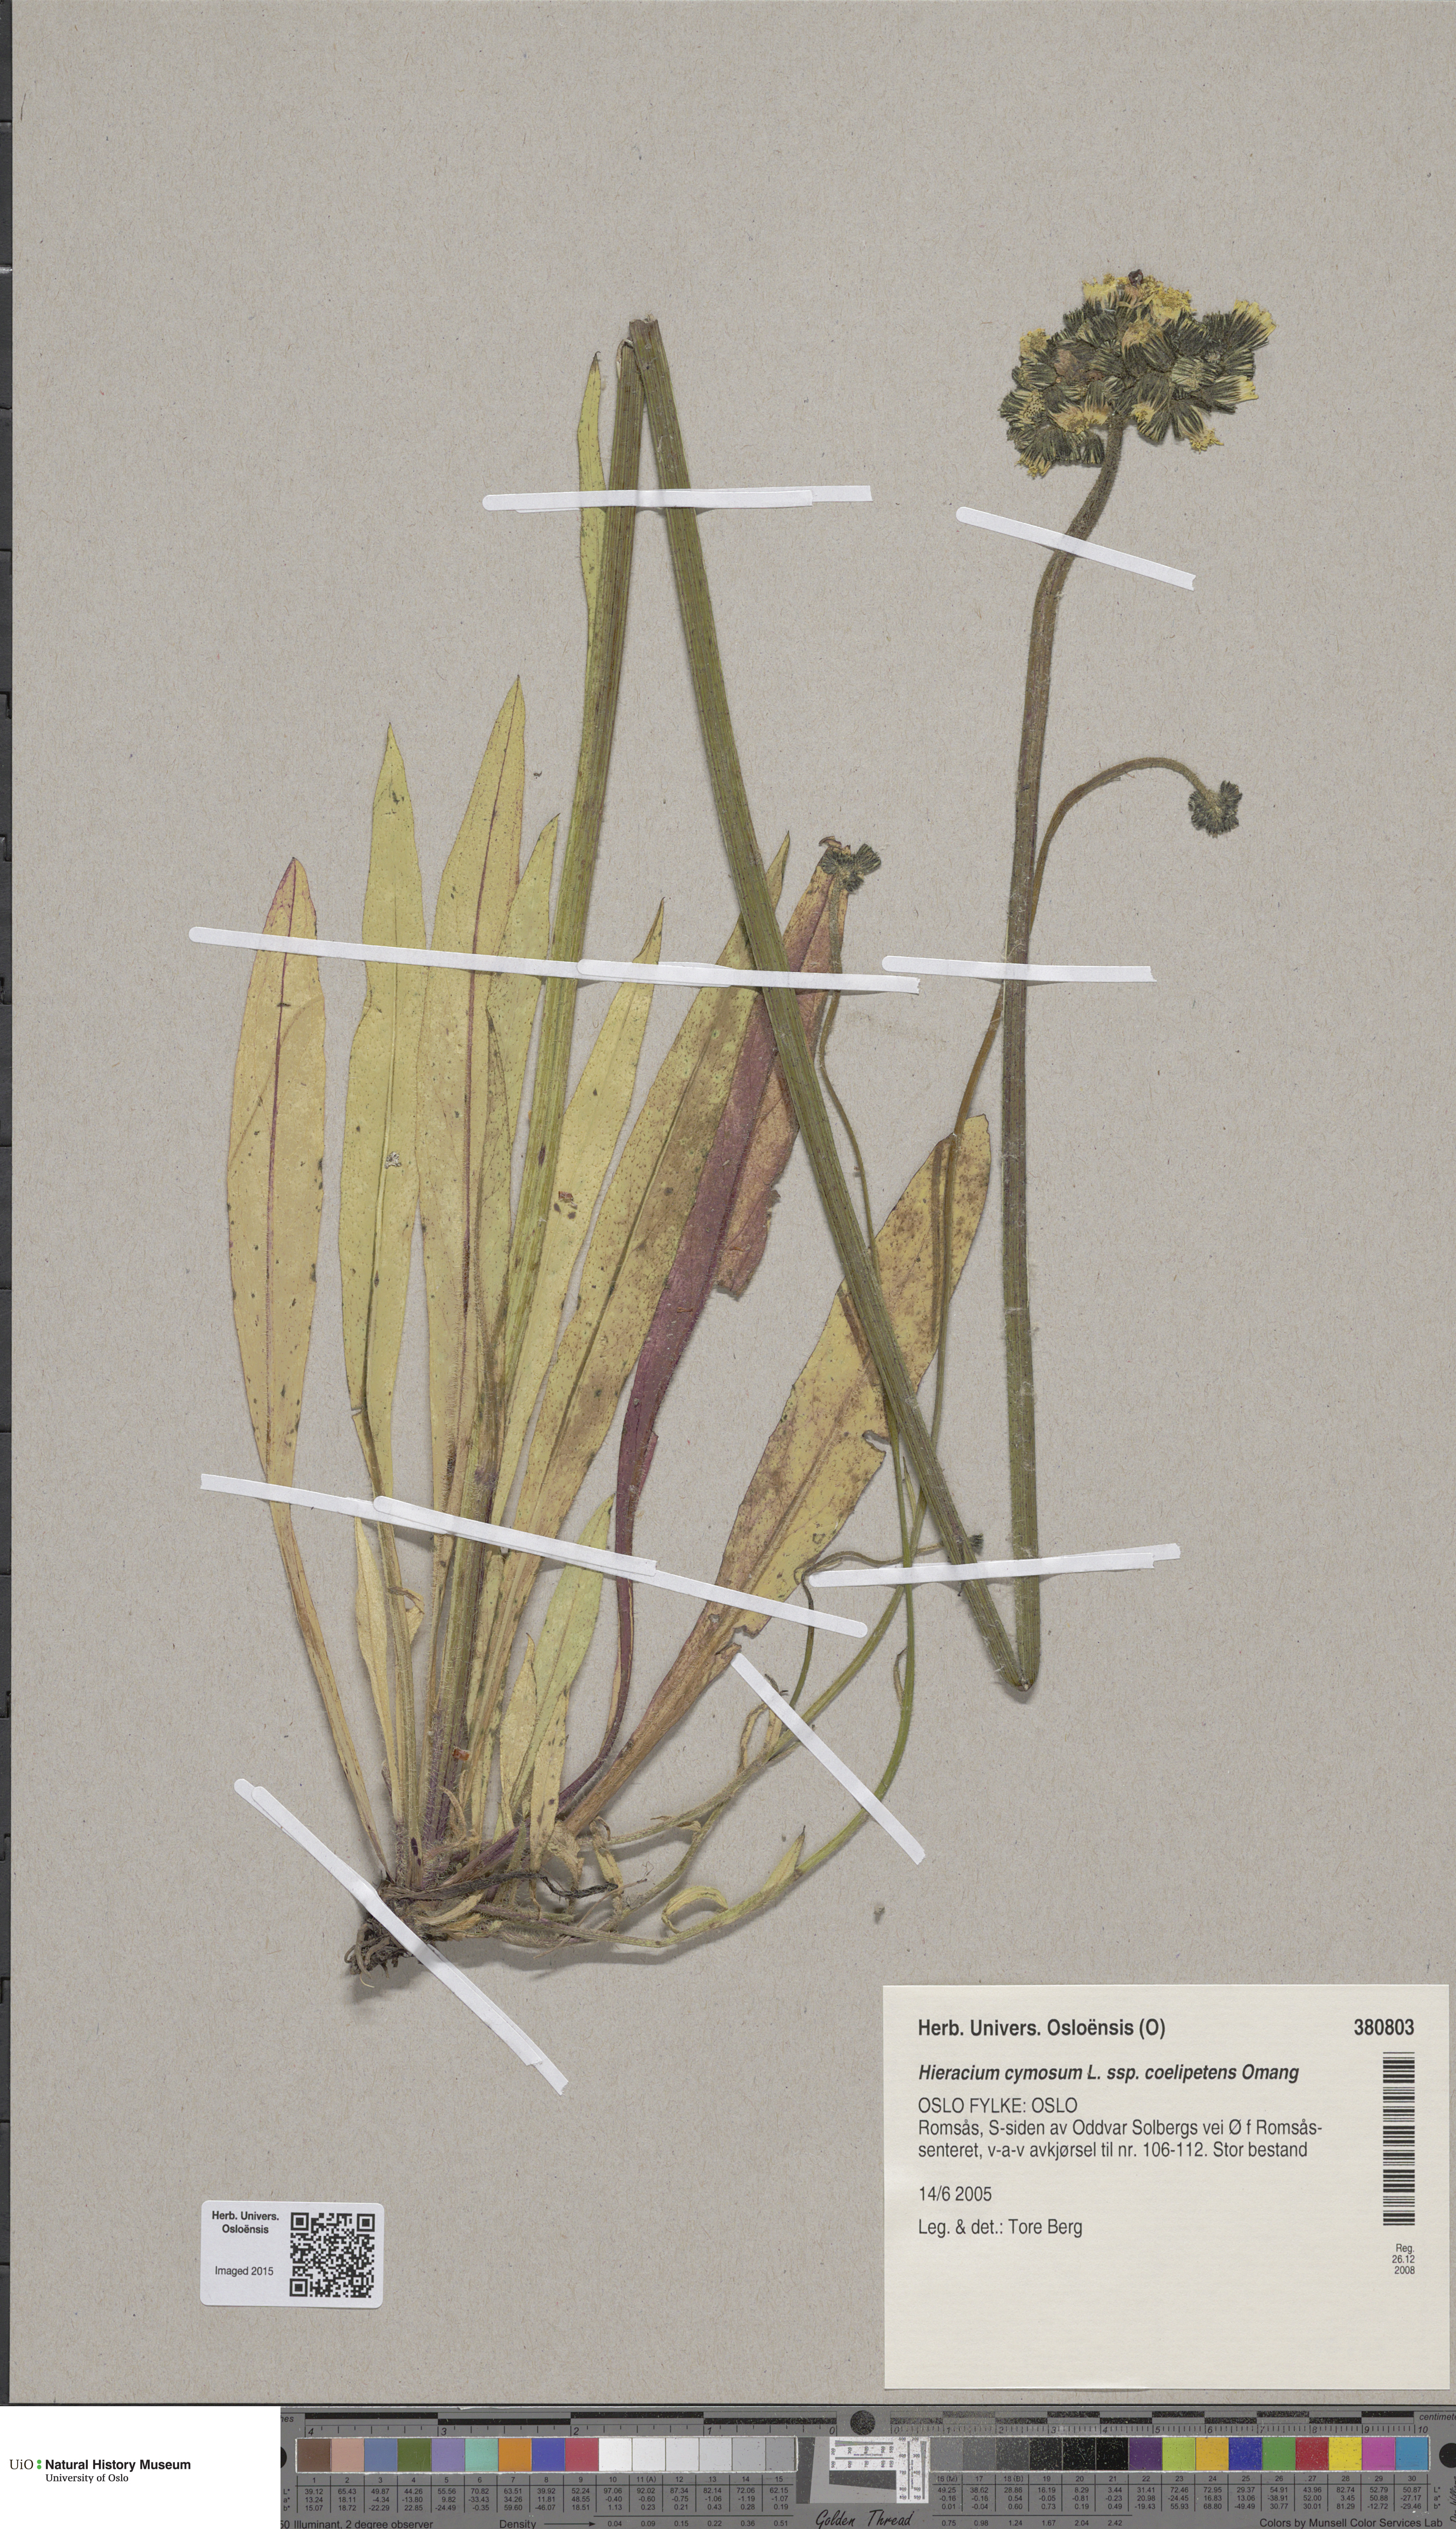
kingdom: Plantae
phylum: Tracheophyta
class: Magnoliopsida
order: Asterales
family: Asteraceae
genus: Pilosella
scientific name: Pilosella cymosa
